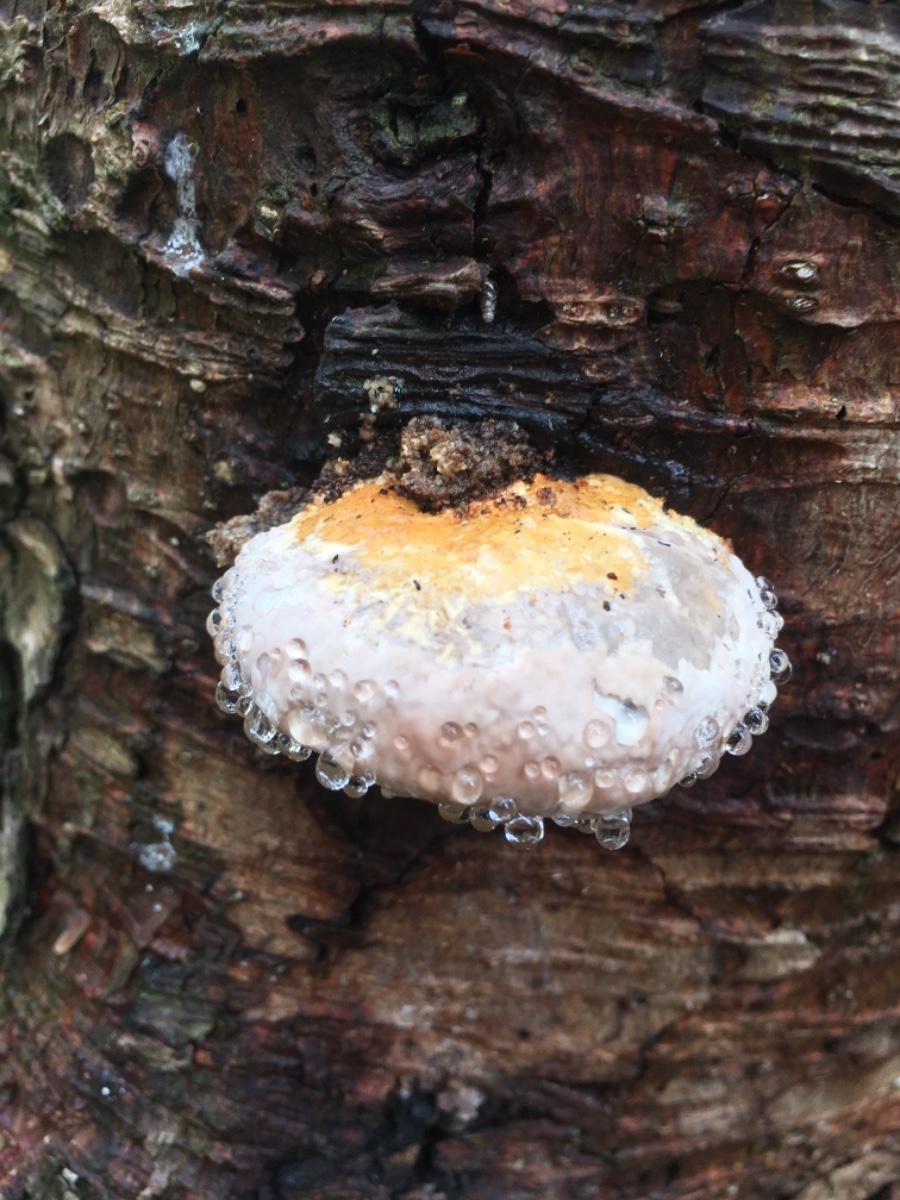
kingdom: Fungi
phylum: Basidiomycota
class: Agaricomycetes
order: Polyporales
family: Fomitopsidaceae
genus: Fomitopsis
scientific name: Fomitopsis pinicola
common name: randbæltet hovporesvamp
